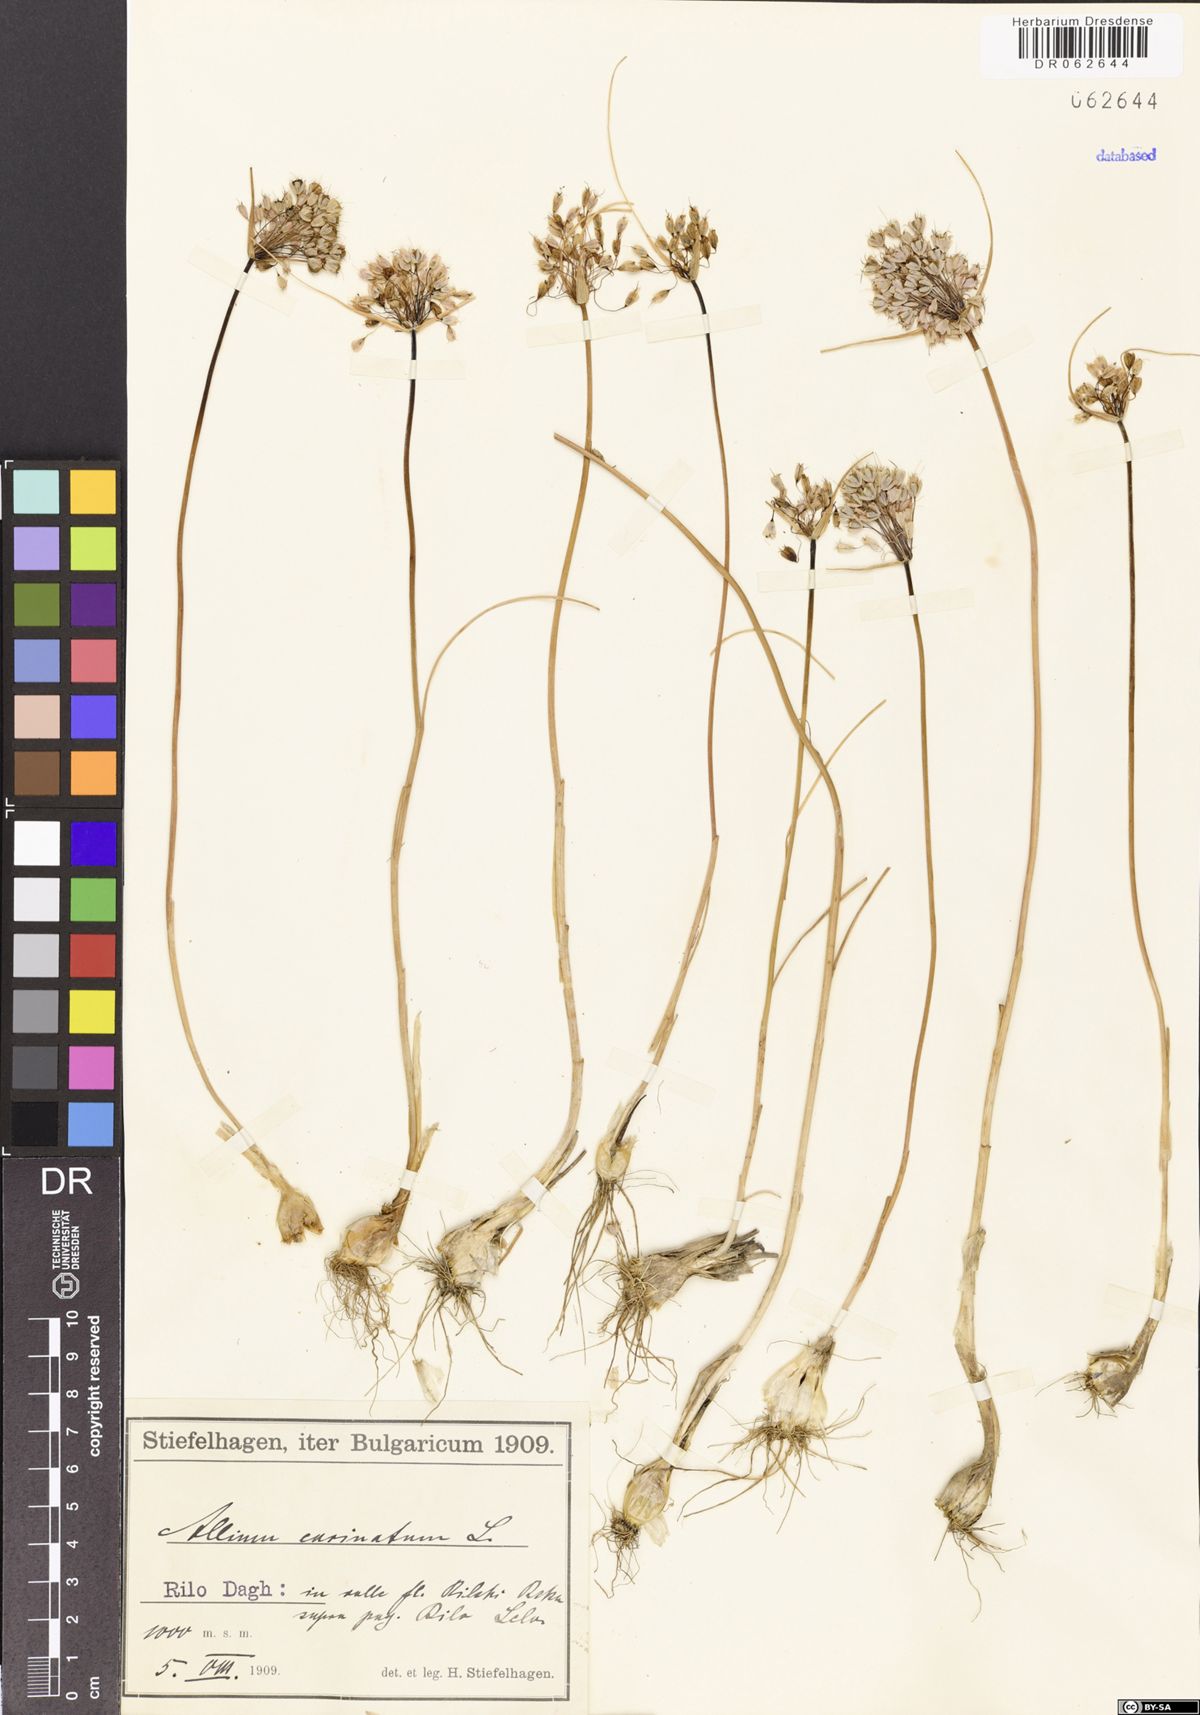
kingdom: Plantae
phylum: Tracheophyta
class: Liliopsida
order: Asparagales
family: Amaryllidaceae
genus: Allium
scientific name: Allium carinatum
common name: Keeled garlic
